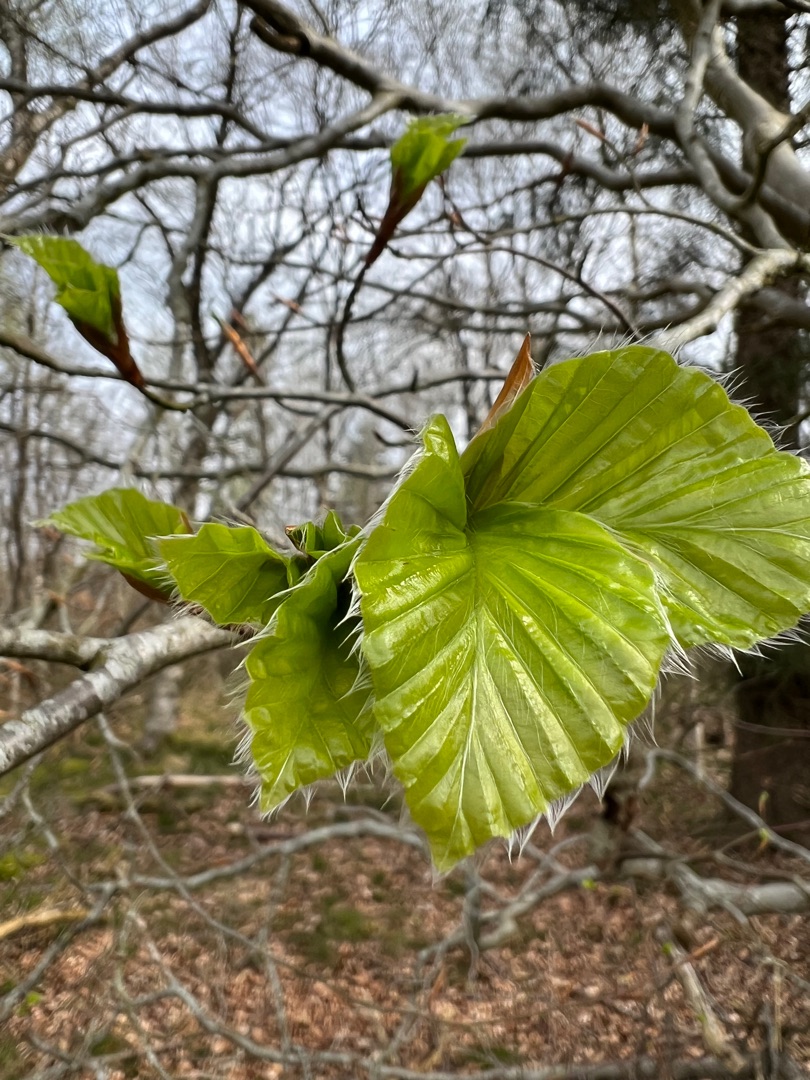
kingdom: Plantae
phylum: Tracheophyta
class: Magnoliopsida
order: Fagales
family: Fagaceae
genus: Fagus
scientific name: Fagus sylvatica
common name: Bøg
